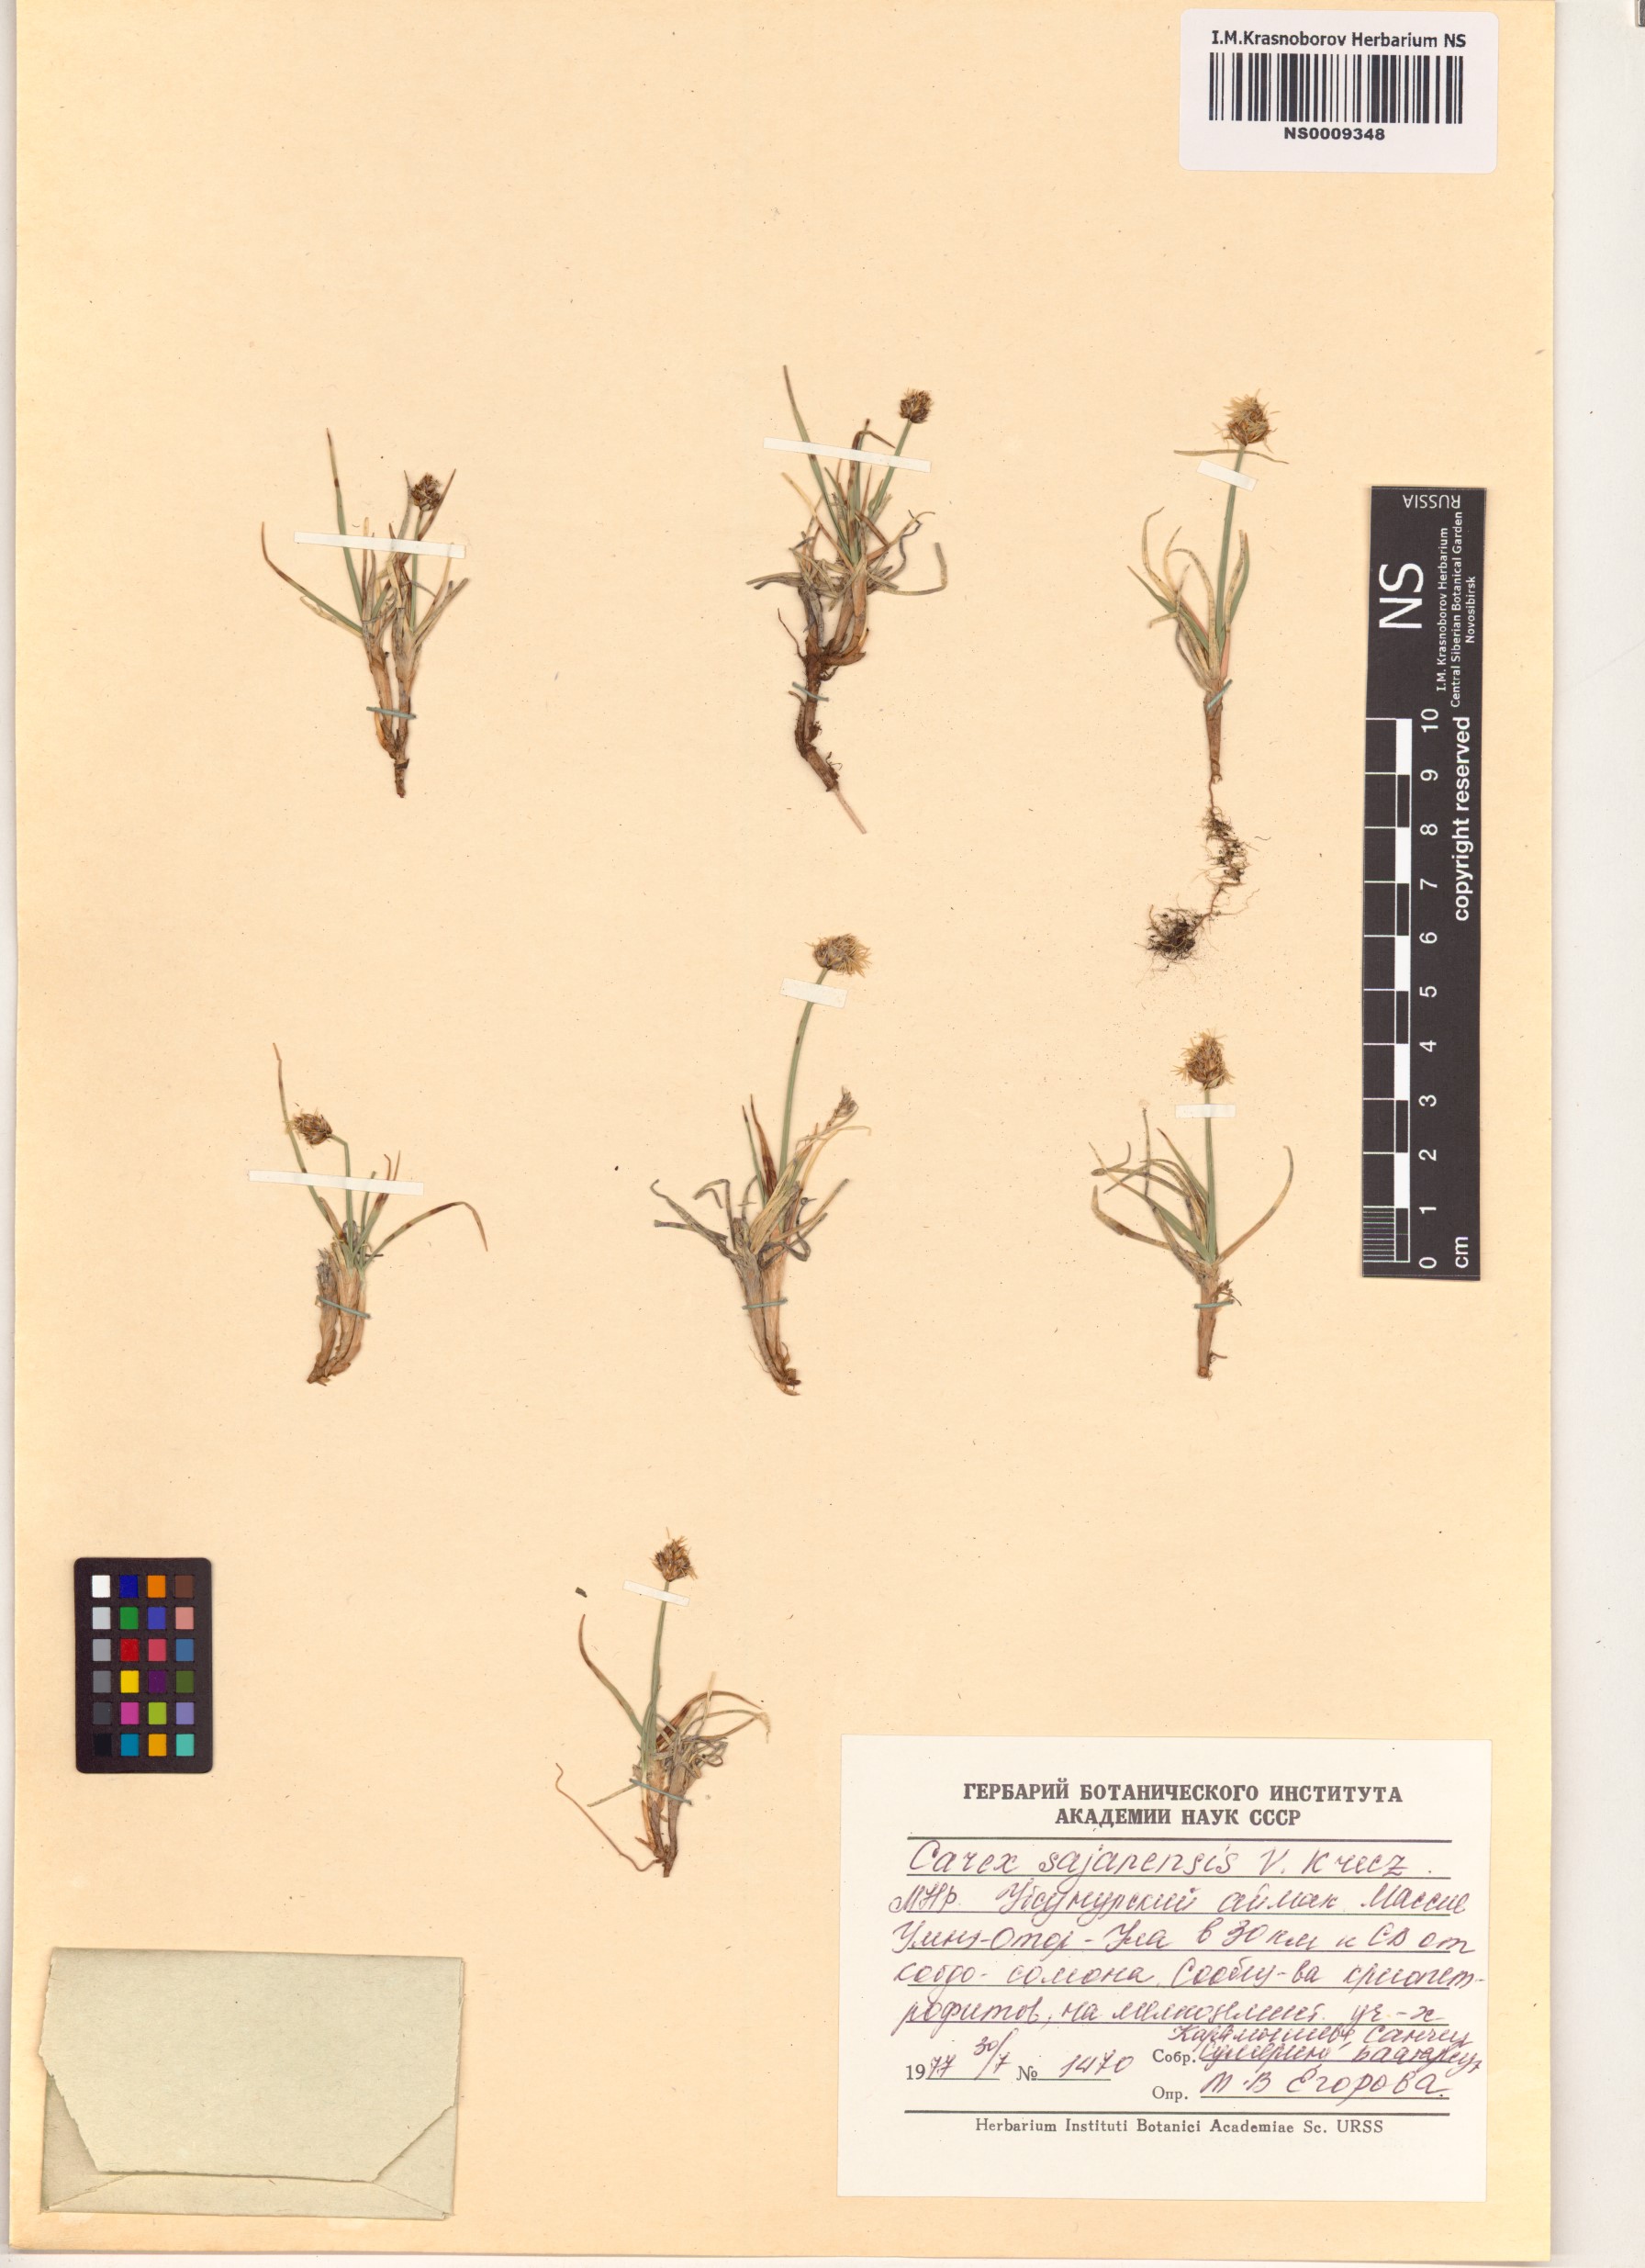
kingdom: Plantae
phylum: Tracheophyta
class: Liliopsida
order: Poales
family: Cyperaceae
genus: Carex
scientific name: Carex sajanensis
